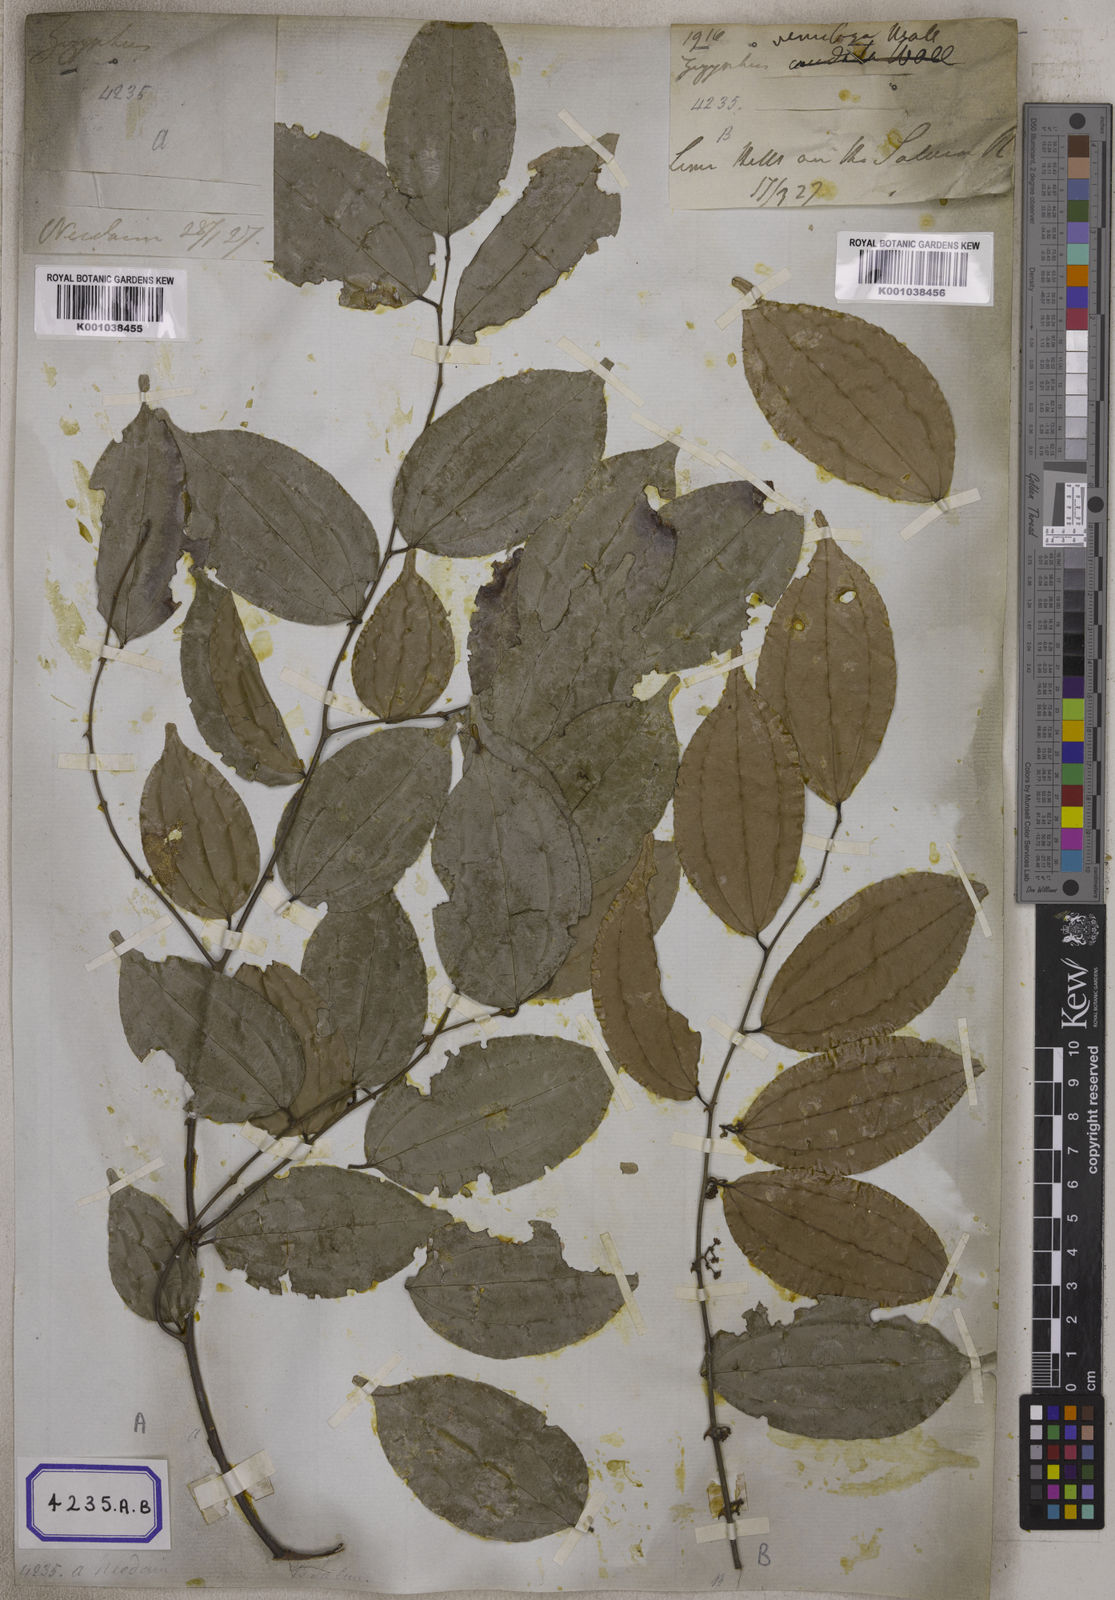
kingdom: Plantae
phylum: Tracheophyta
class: Magnoliopsida
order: Rosales
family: Rhamnaceae
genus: Ziziphus
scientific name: Ziziphus funiculosa
